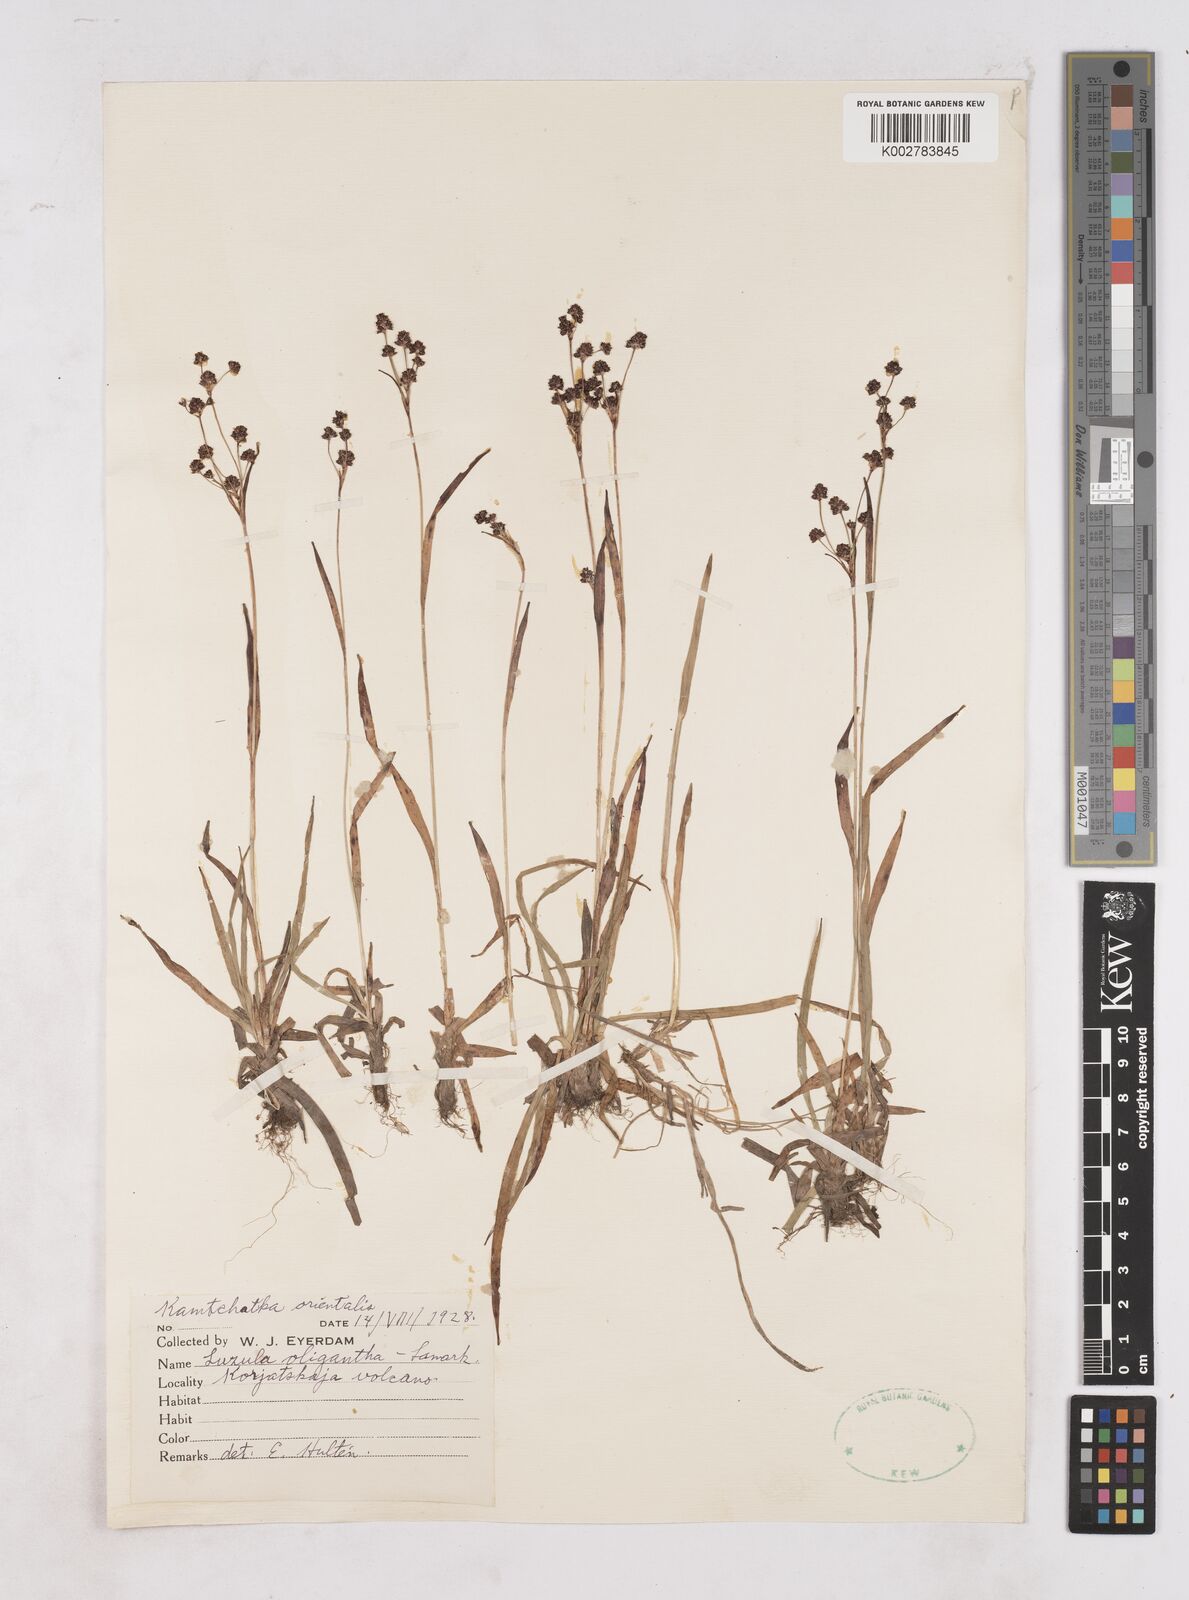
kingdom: Plantae
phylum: Tracheophyta
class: Liliopsida
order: Poales
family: Juncaceae
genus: Luzula
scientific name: Luzula oligantha
